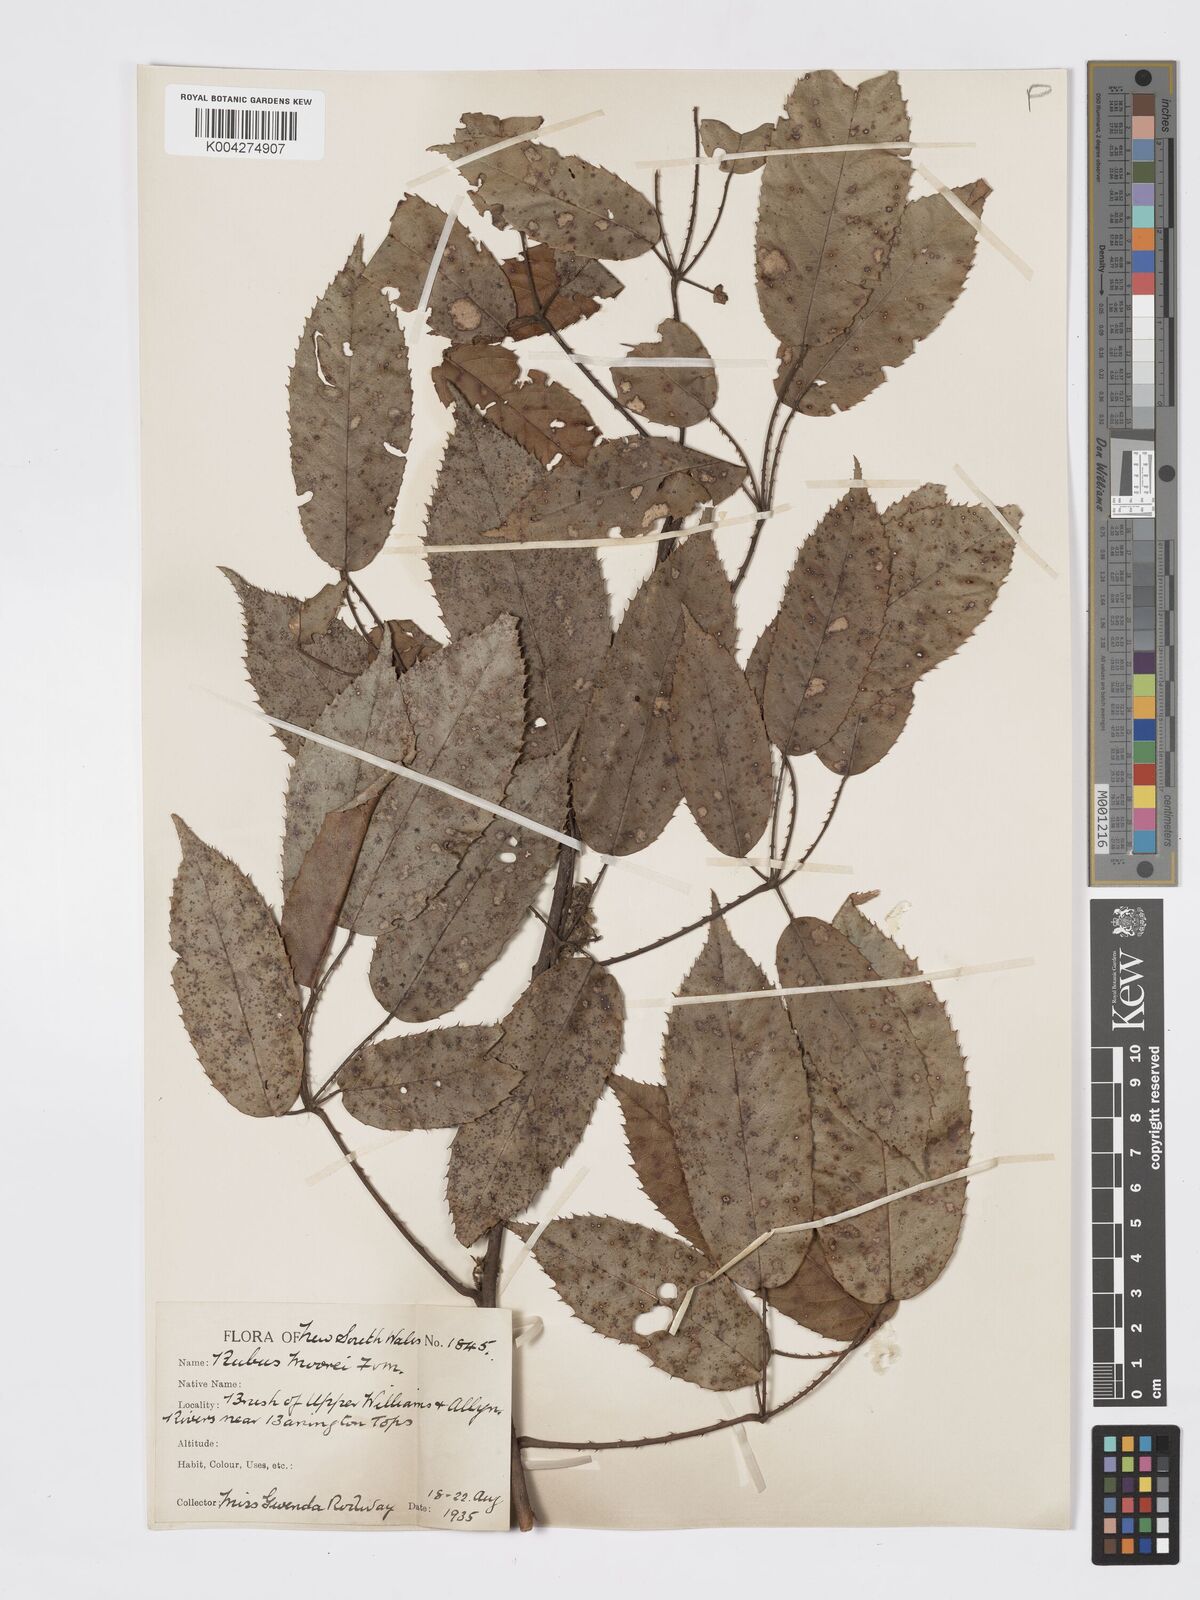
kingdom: Plantae
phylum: Tracheophyta
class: Magnoliopsida
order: Rosales
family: Rosaceae
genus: Rubus
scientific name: Rubus moorei
